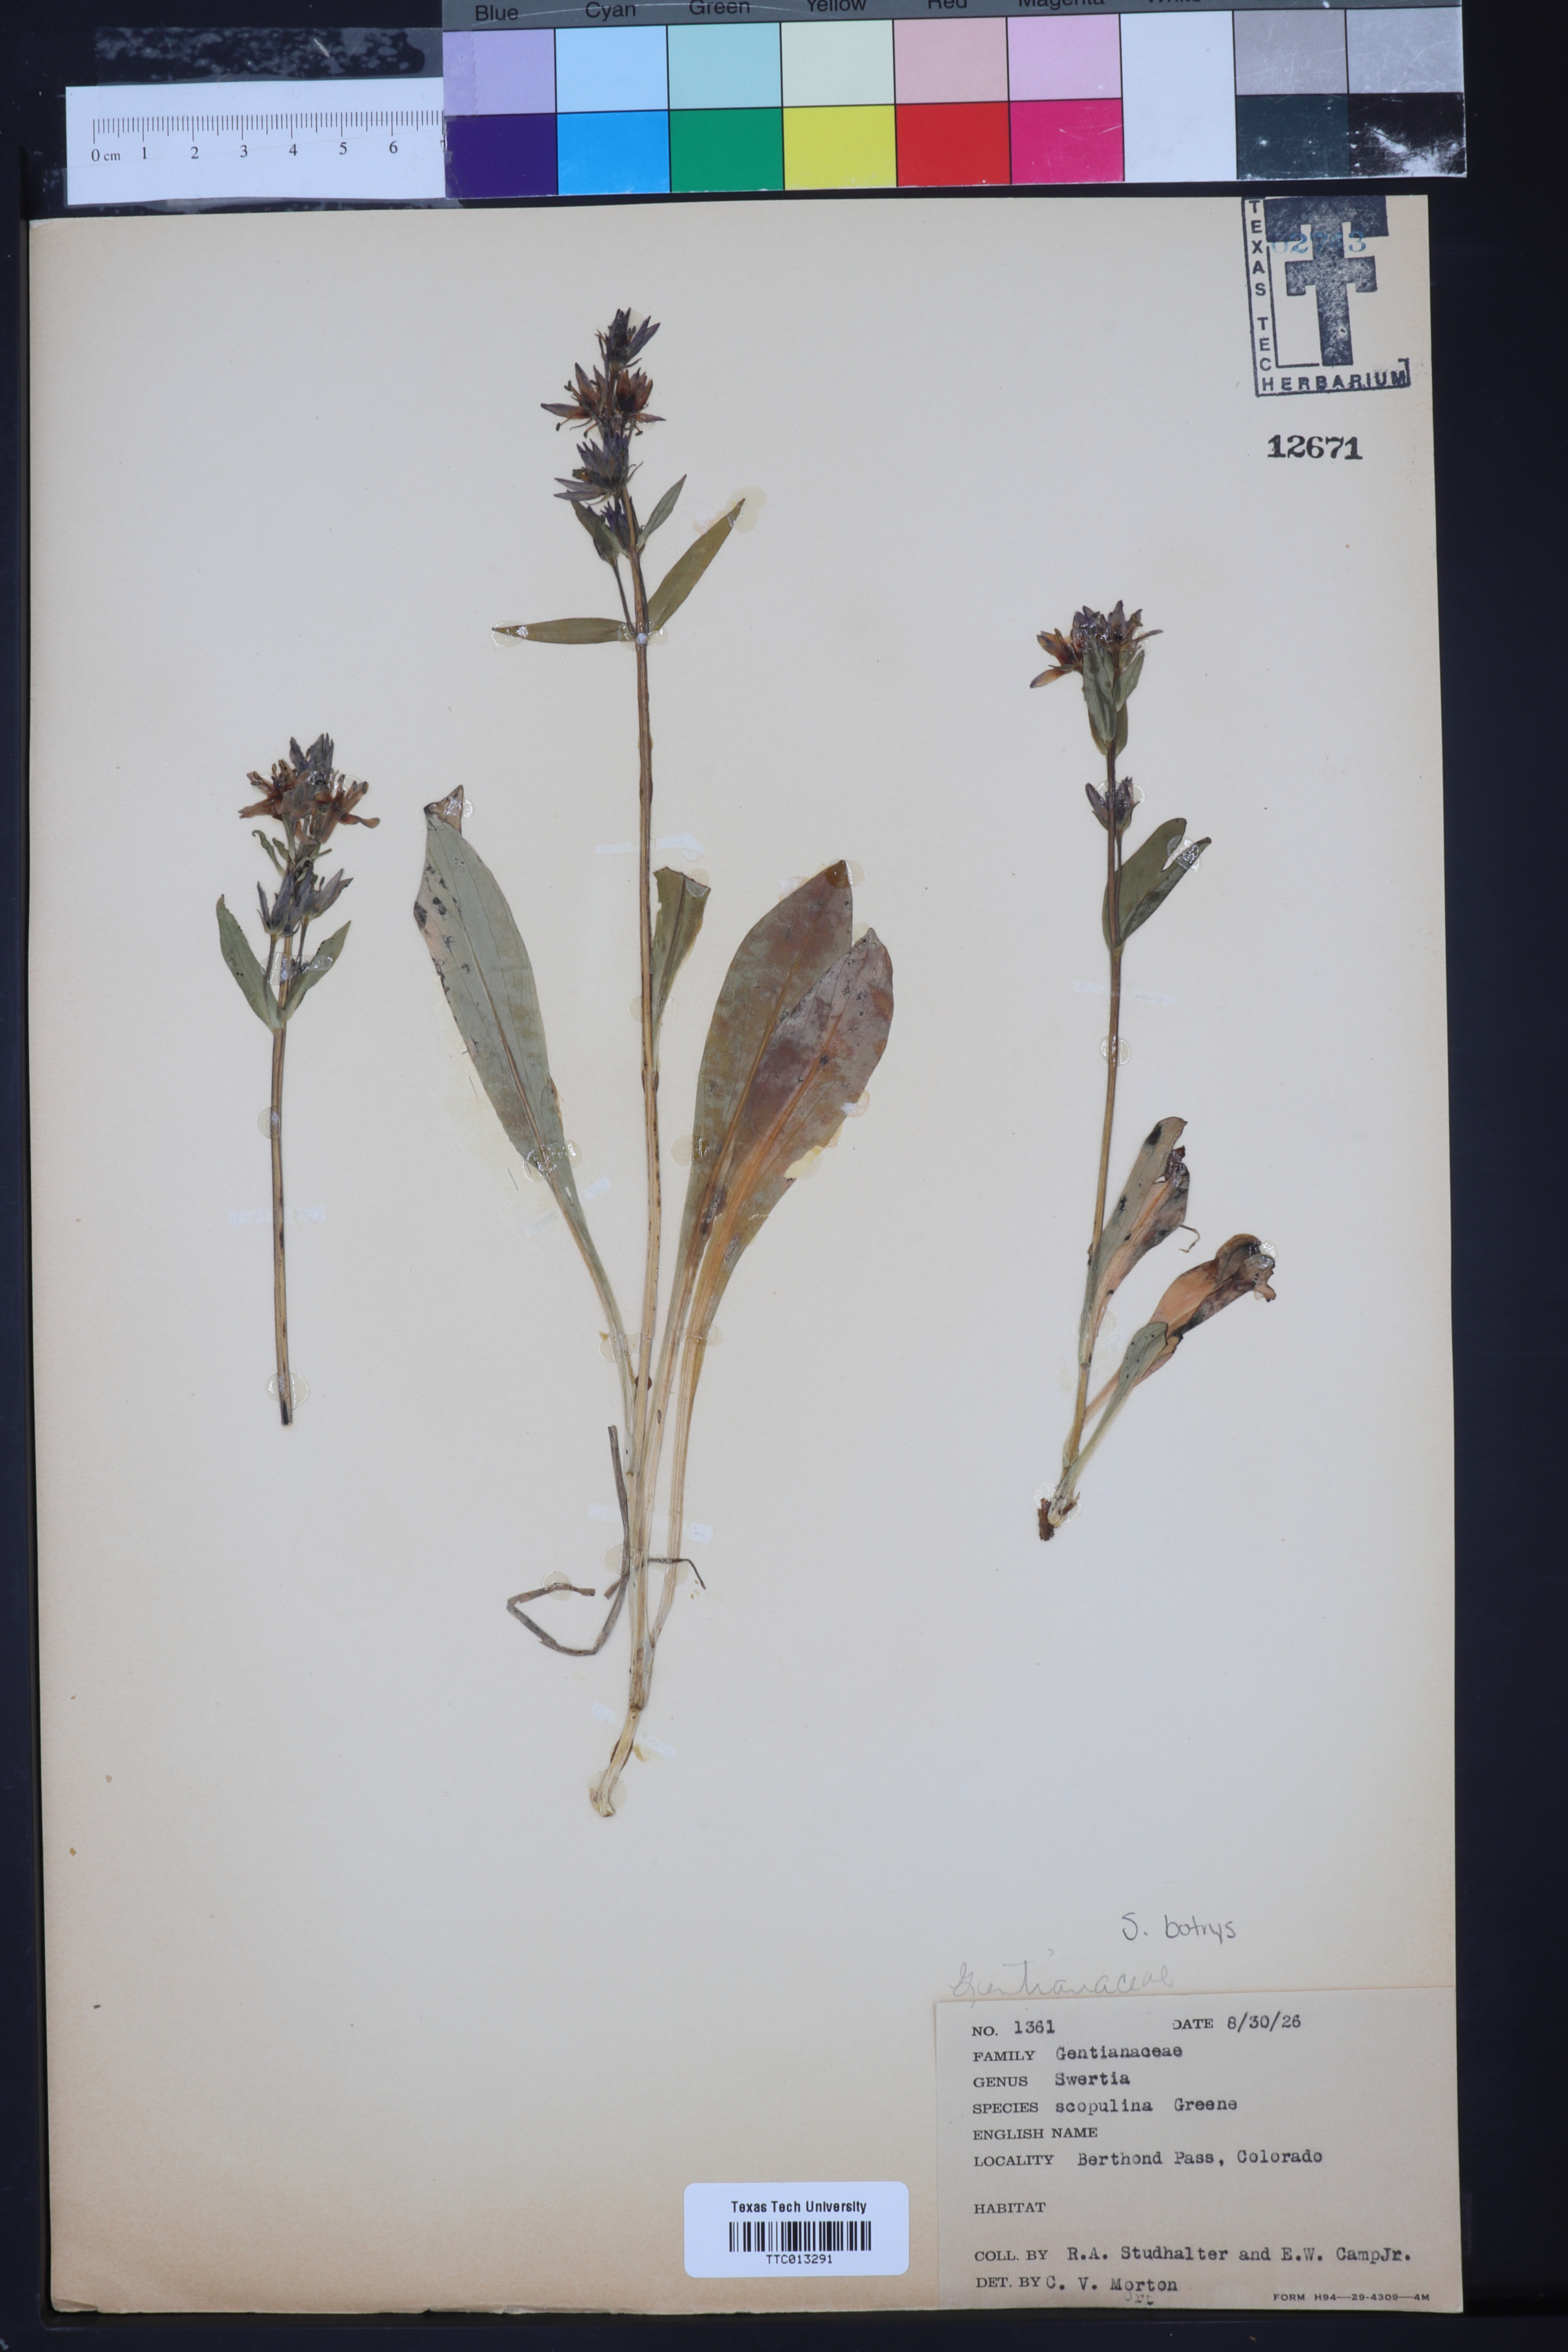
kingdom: Plantae
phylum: Tracheophyta
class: Magnoliopsida
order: Gentianales
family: Gentianaceae
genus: Swertia
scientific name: Swertia perennis
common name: Alpine bog swertia
